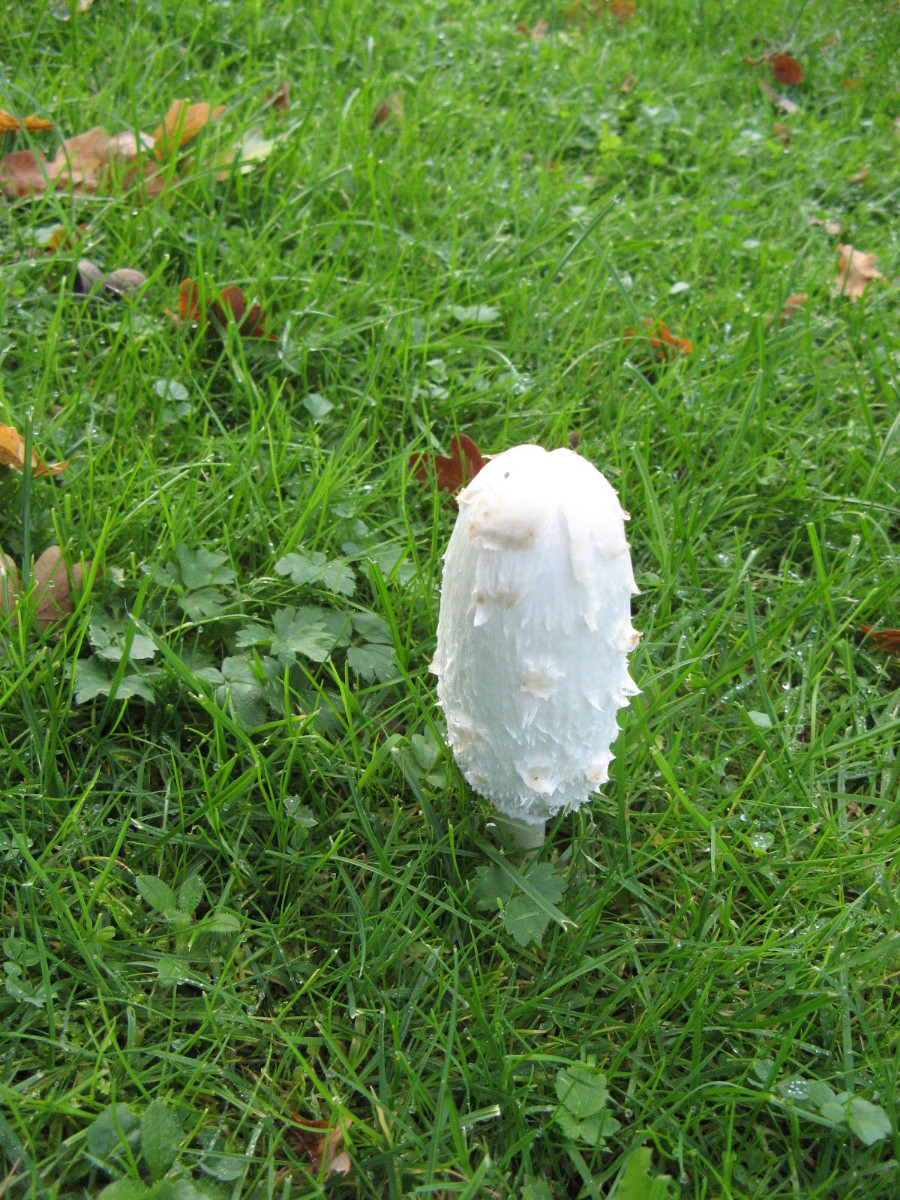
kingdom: Fungi
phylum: Basidiomycota
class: Agaricomycetes
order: Agaricales
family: Agaricaceae
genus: Coprinus
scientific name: Coprinus comatus
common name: stor parykhat
